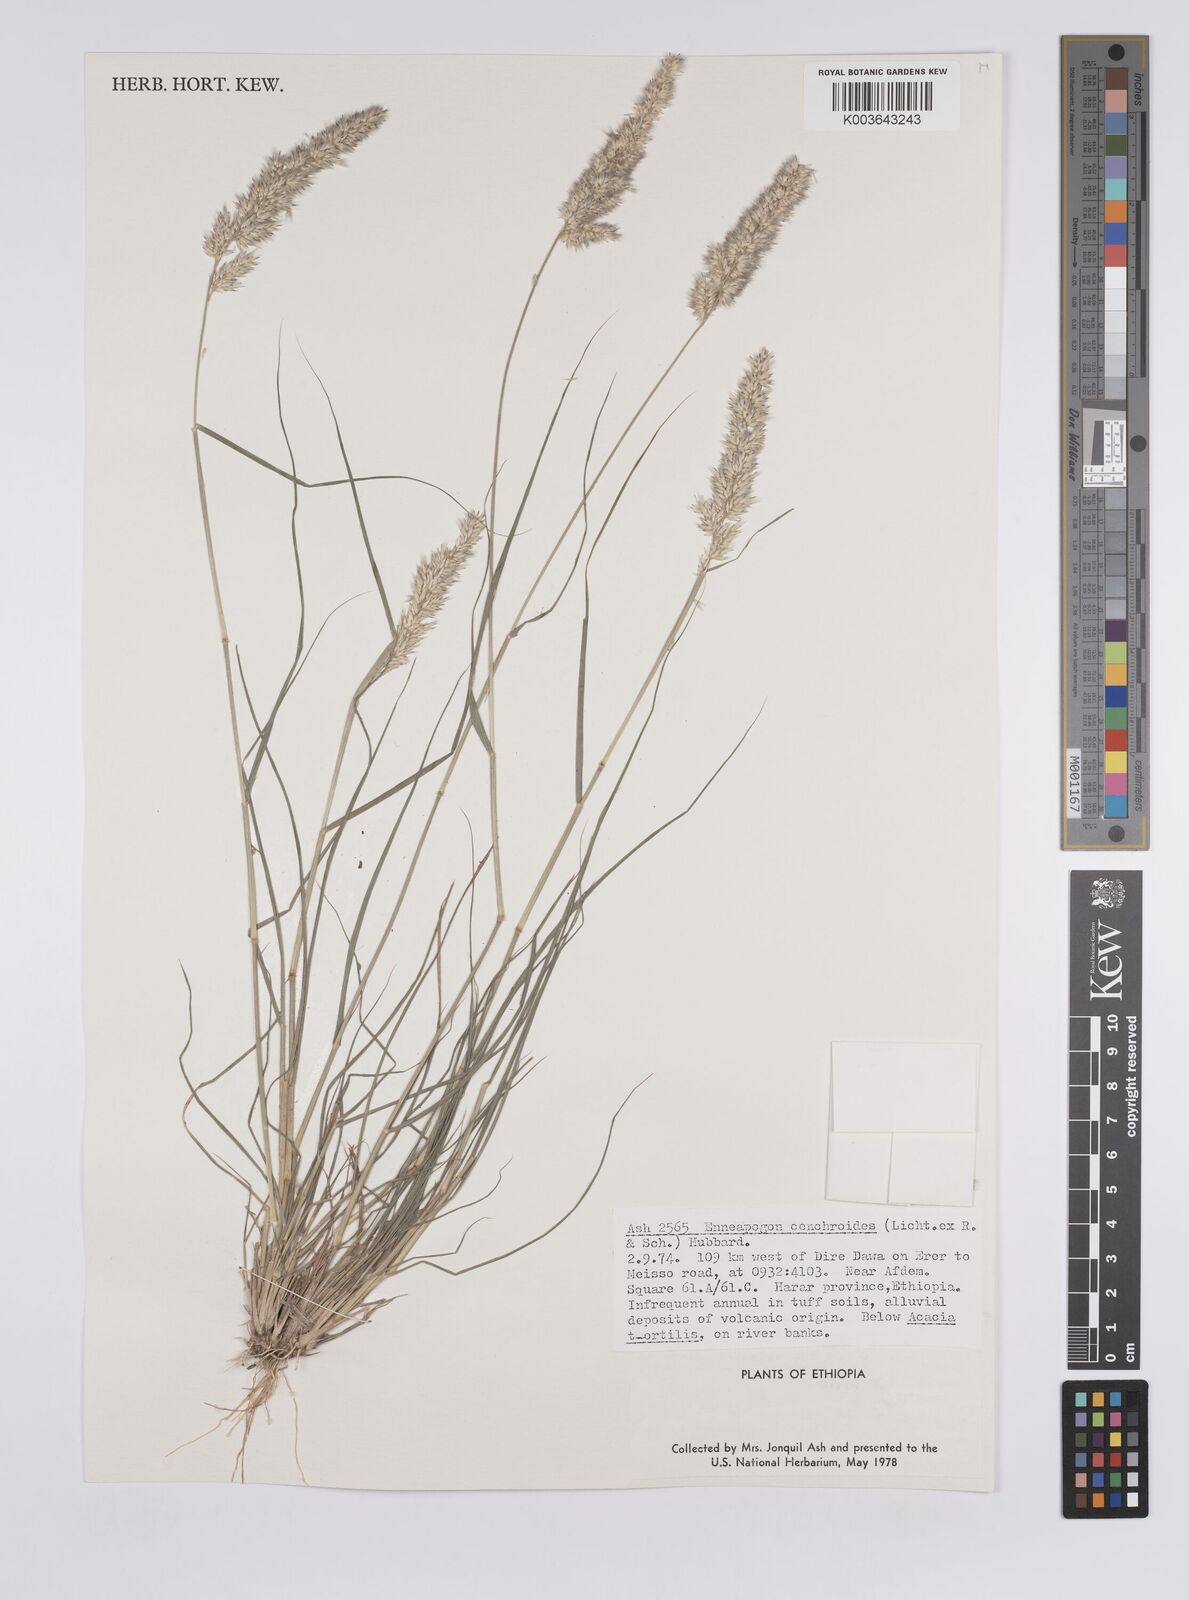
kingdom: Plantae
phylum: Tracheophyta
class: Liliopsida
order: Poales
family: Poaceae
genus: Enneapogon
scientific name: Enneapogon cenchroides
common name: Soft feather pappusgrass
